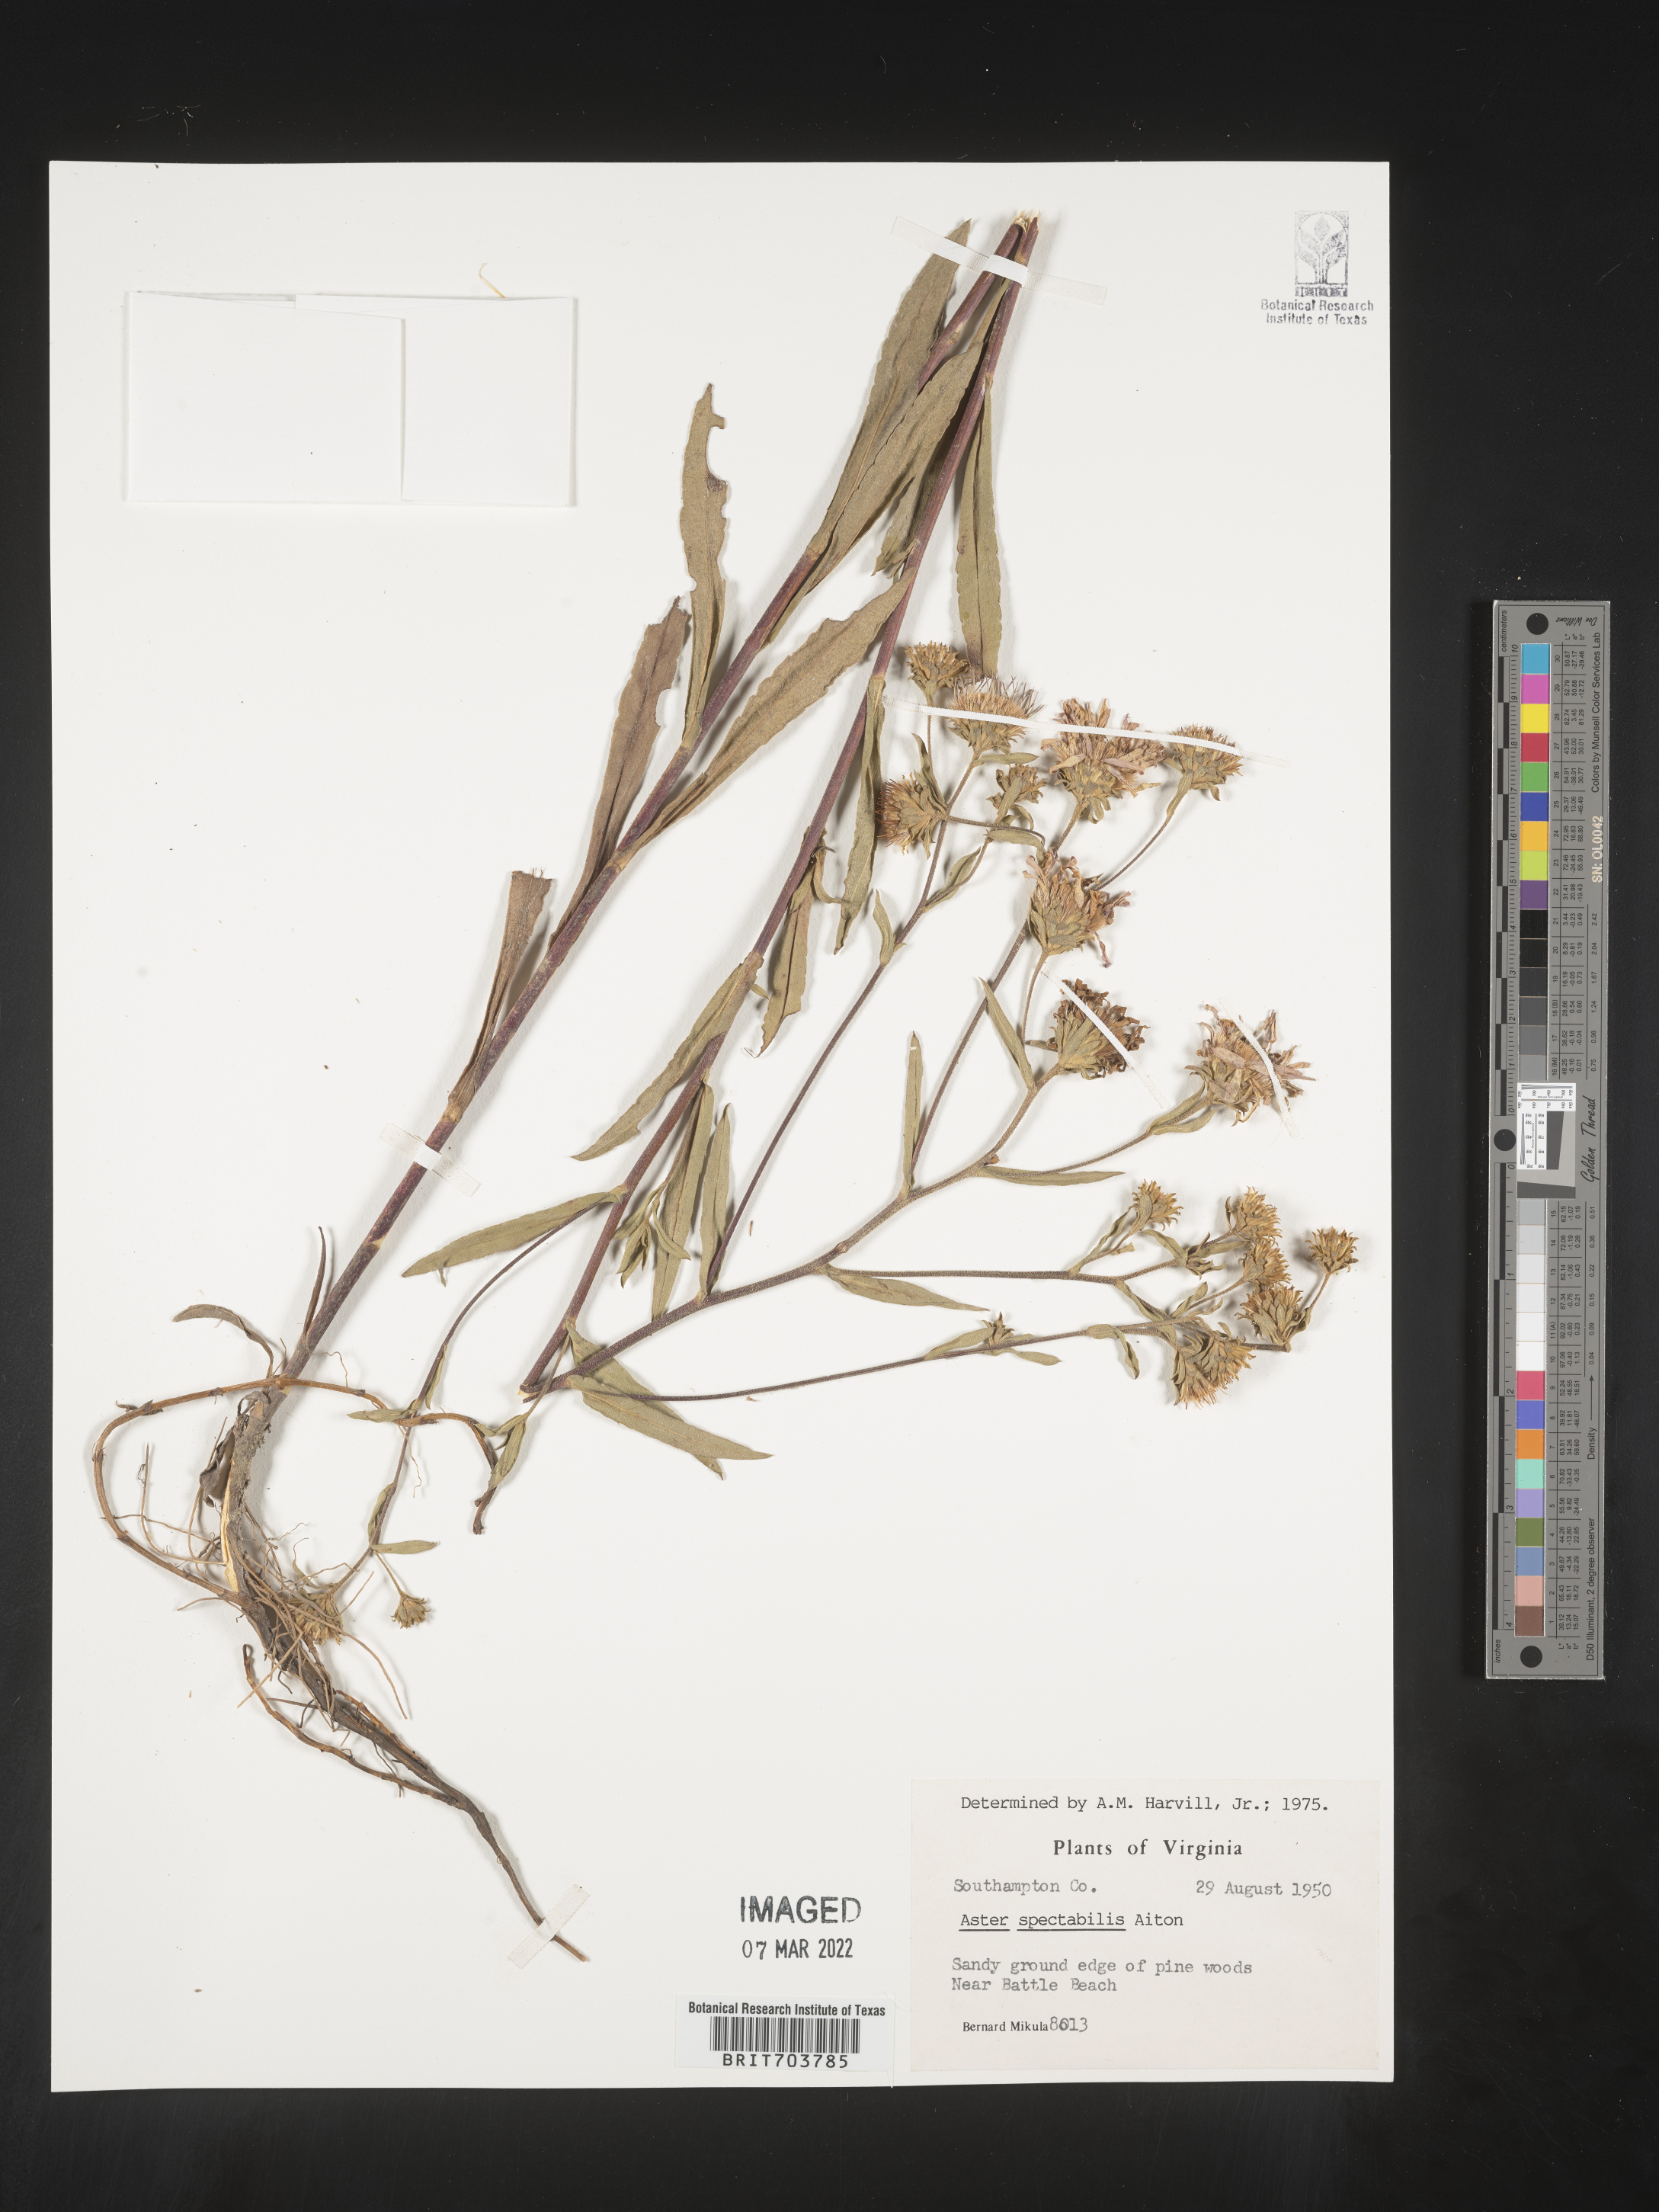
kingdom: Plantae
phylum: Tracheophyta
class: Magnoliopsida
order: Asterales
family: Asteraceae
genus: Eurybia
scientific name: Eurybia spectabilis
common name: Low showy aster
